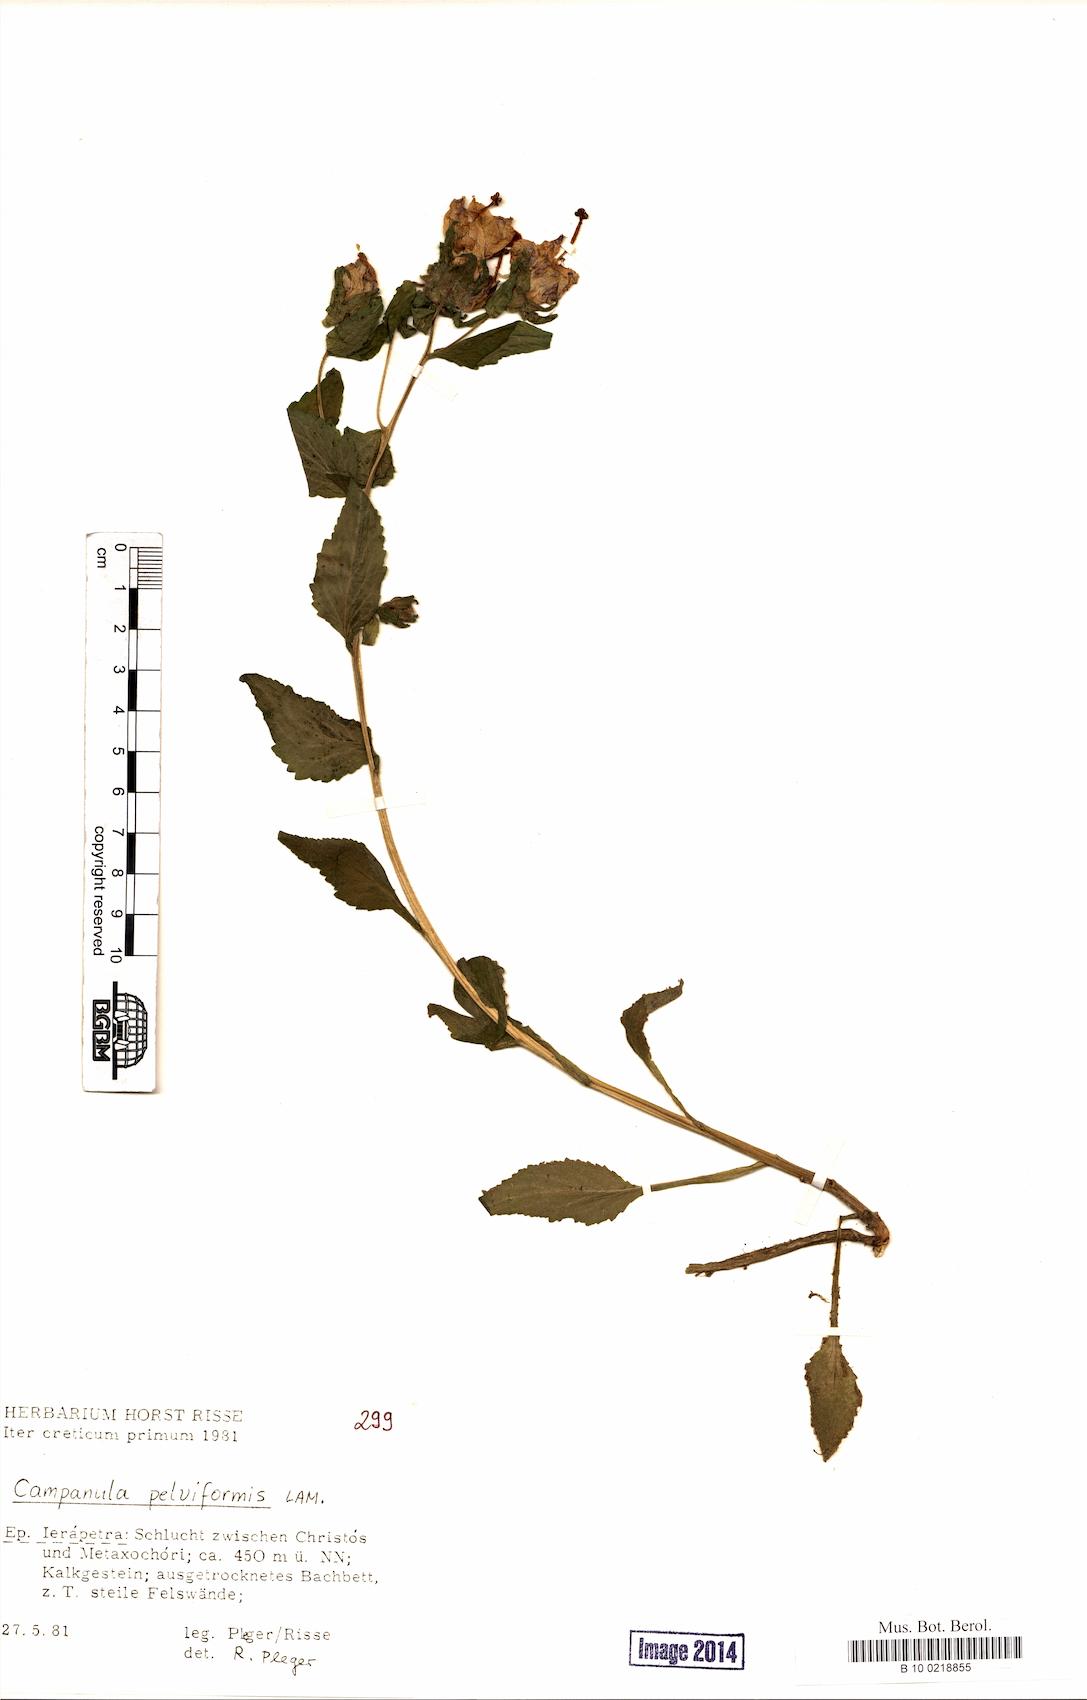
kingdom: Plantae
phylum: Tracheophyta
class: Magnoliopsida
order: Asterales
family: Campanulaceae
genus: Campanula
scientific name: Campanula pelviformis
